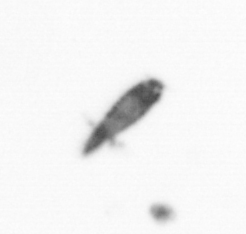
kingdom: Animalia
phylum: Arthropoda
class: Copepoda
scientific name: Copepoda
